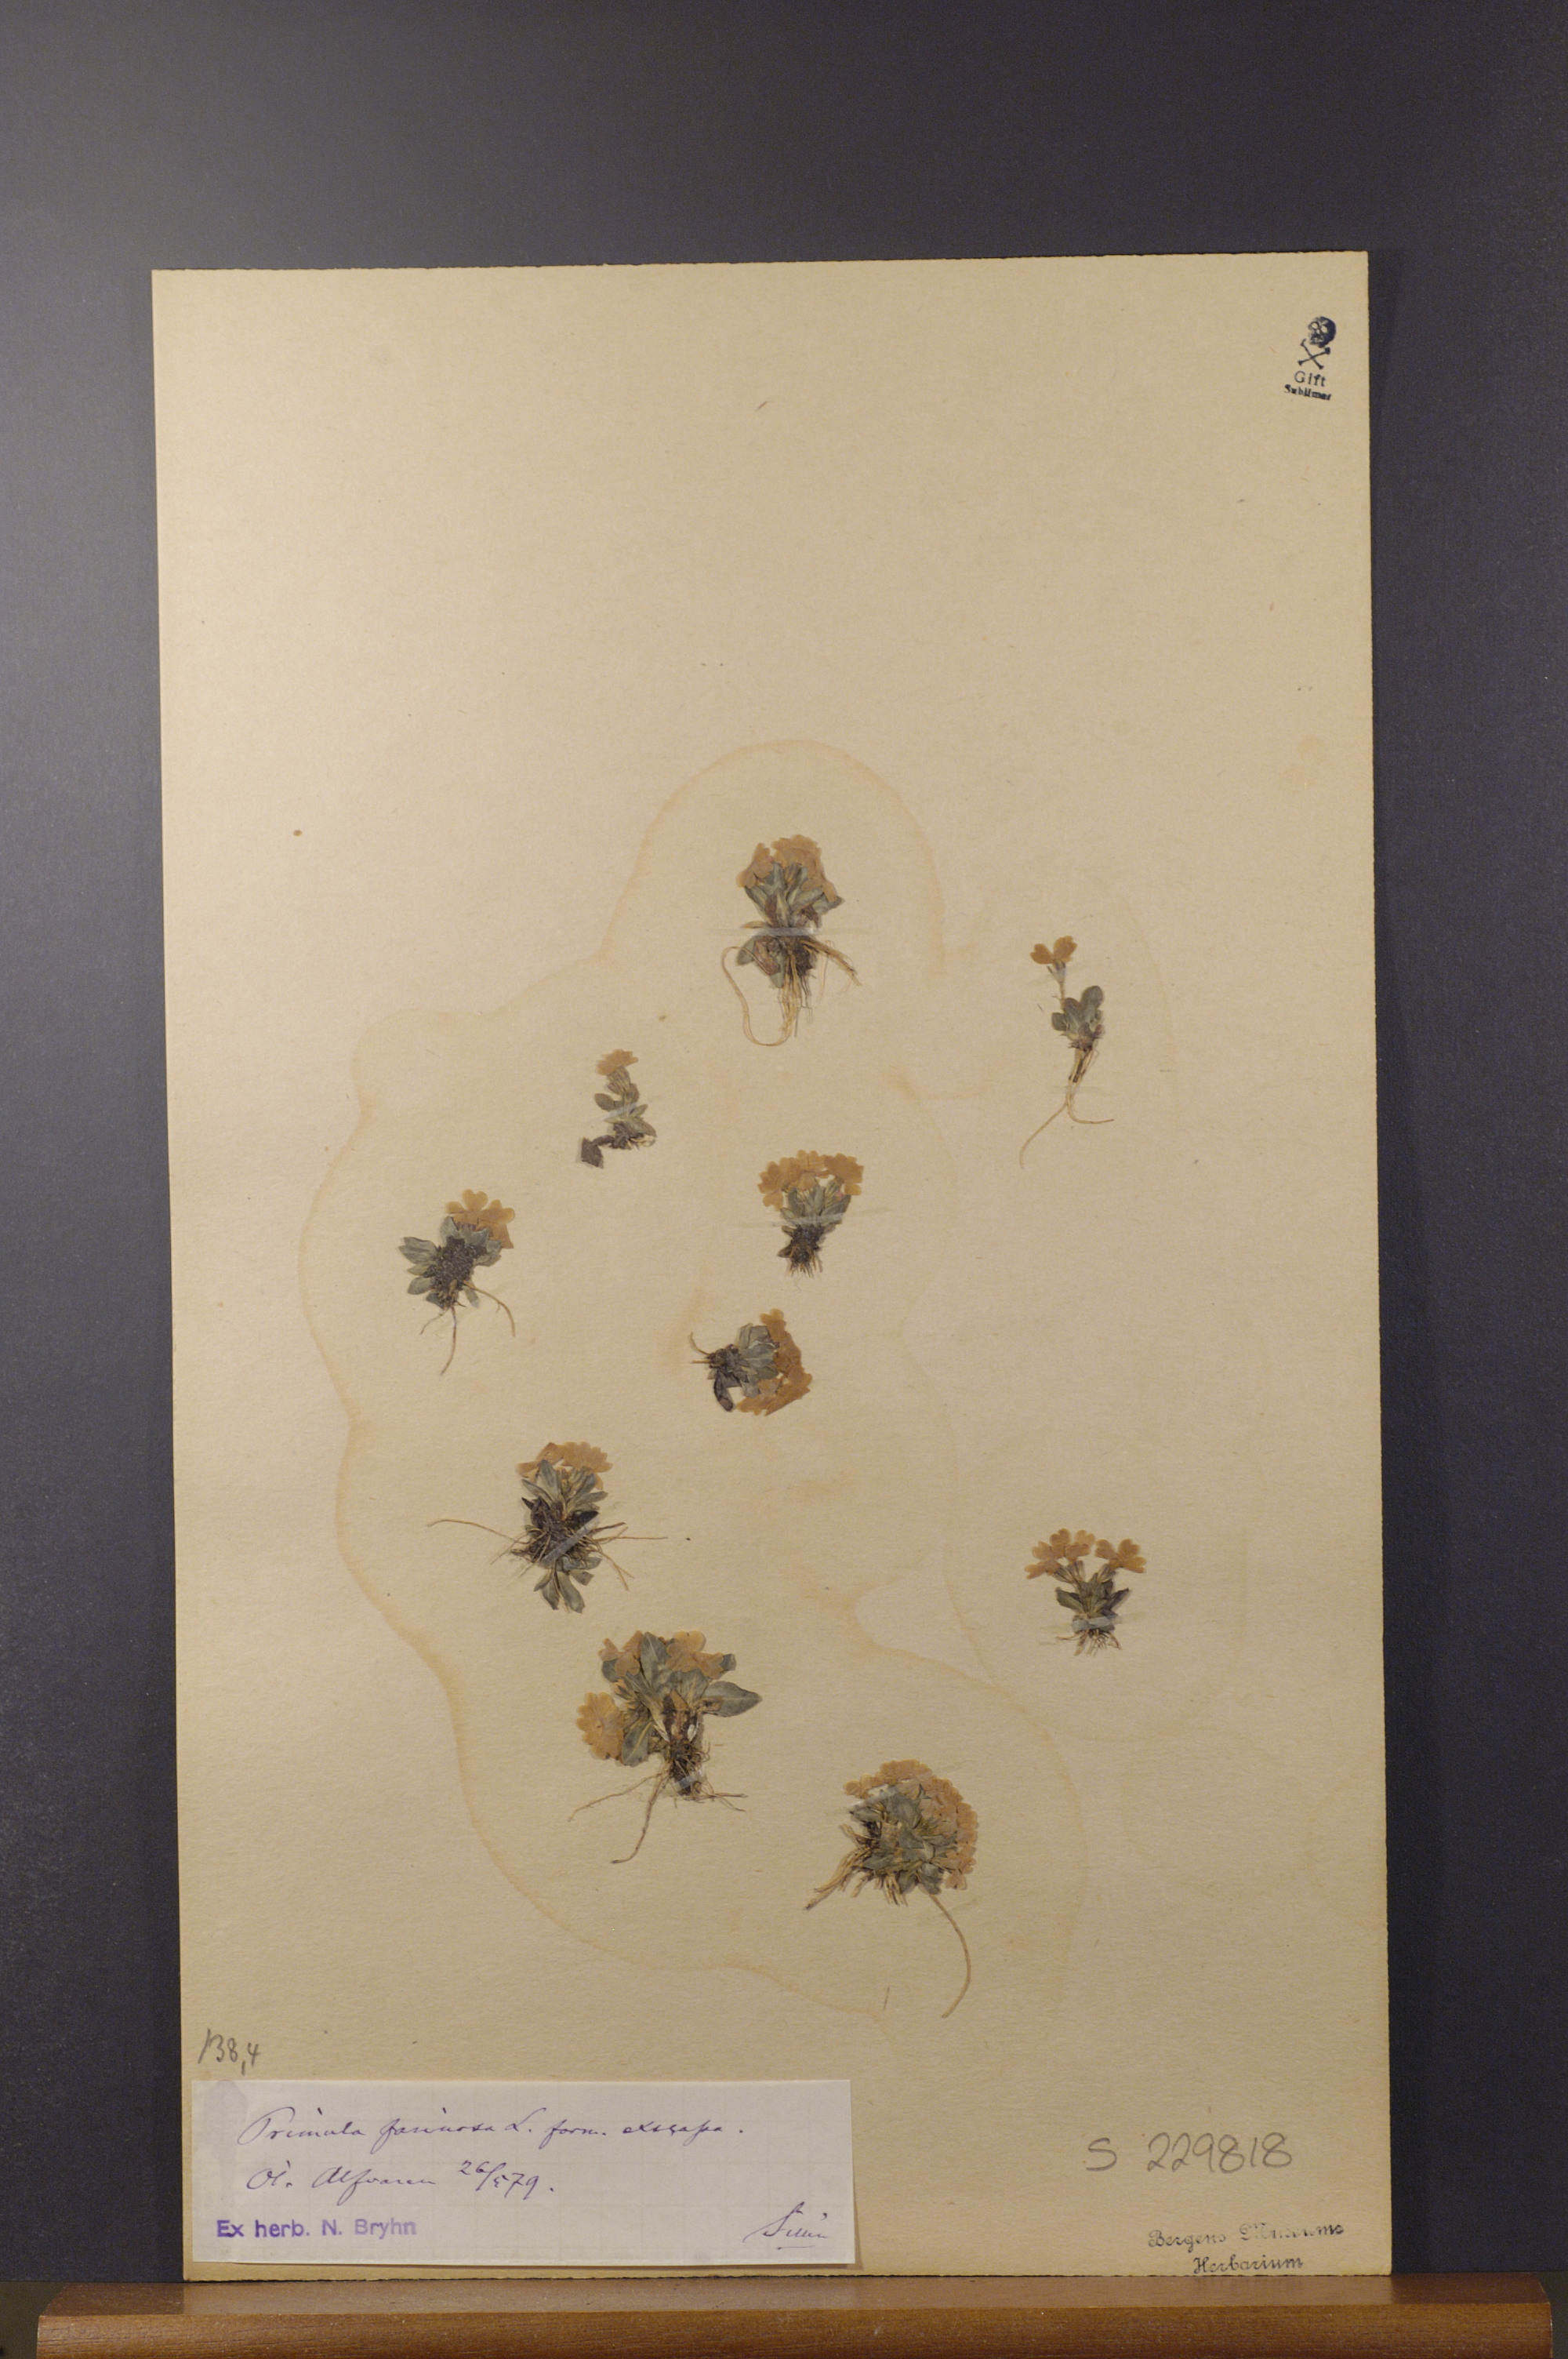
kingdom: Plantae
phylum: Tracheophyta
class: Magnoliopsida
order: Ericales
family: Primulaceae
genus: Primula
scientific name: Primula farinosa
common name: Bird's-eye primrose
